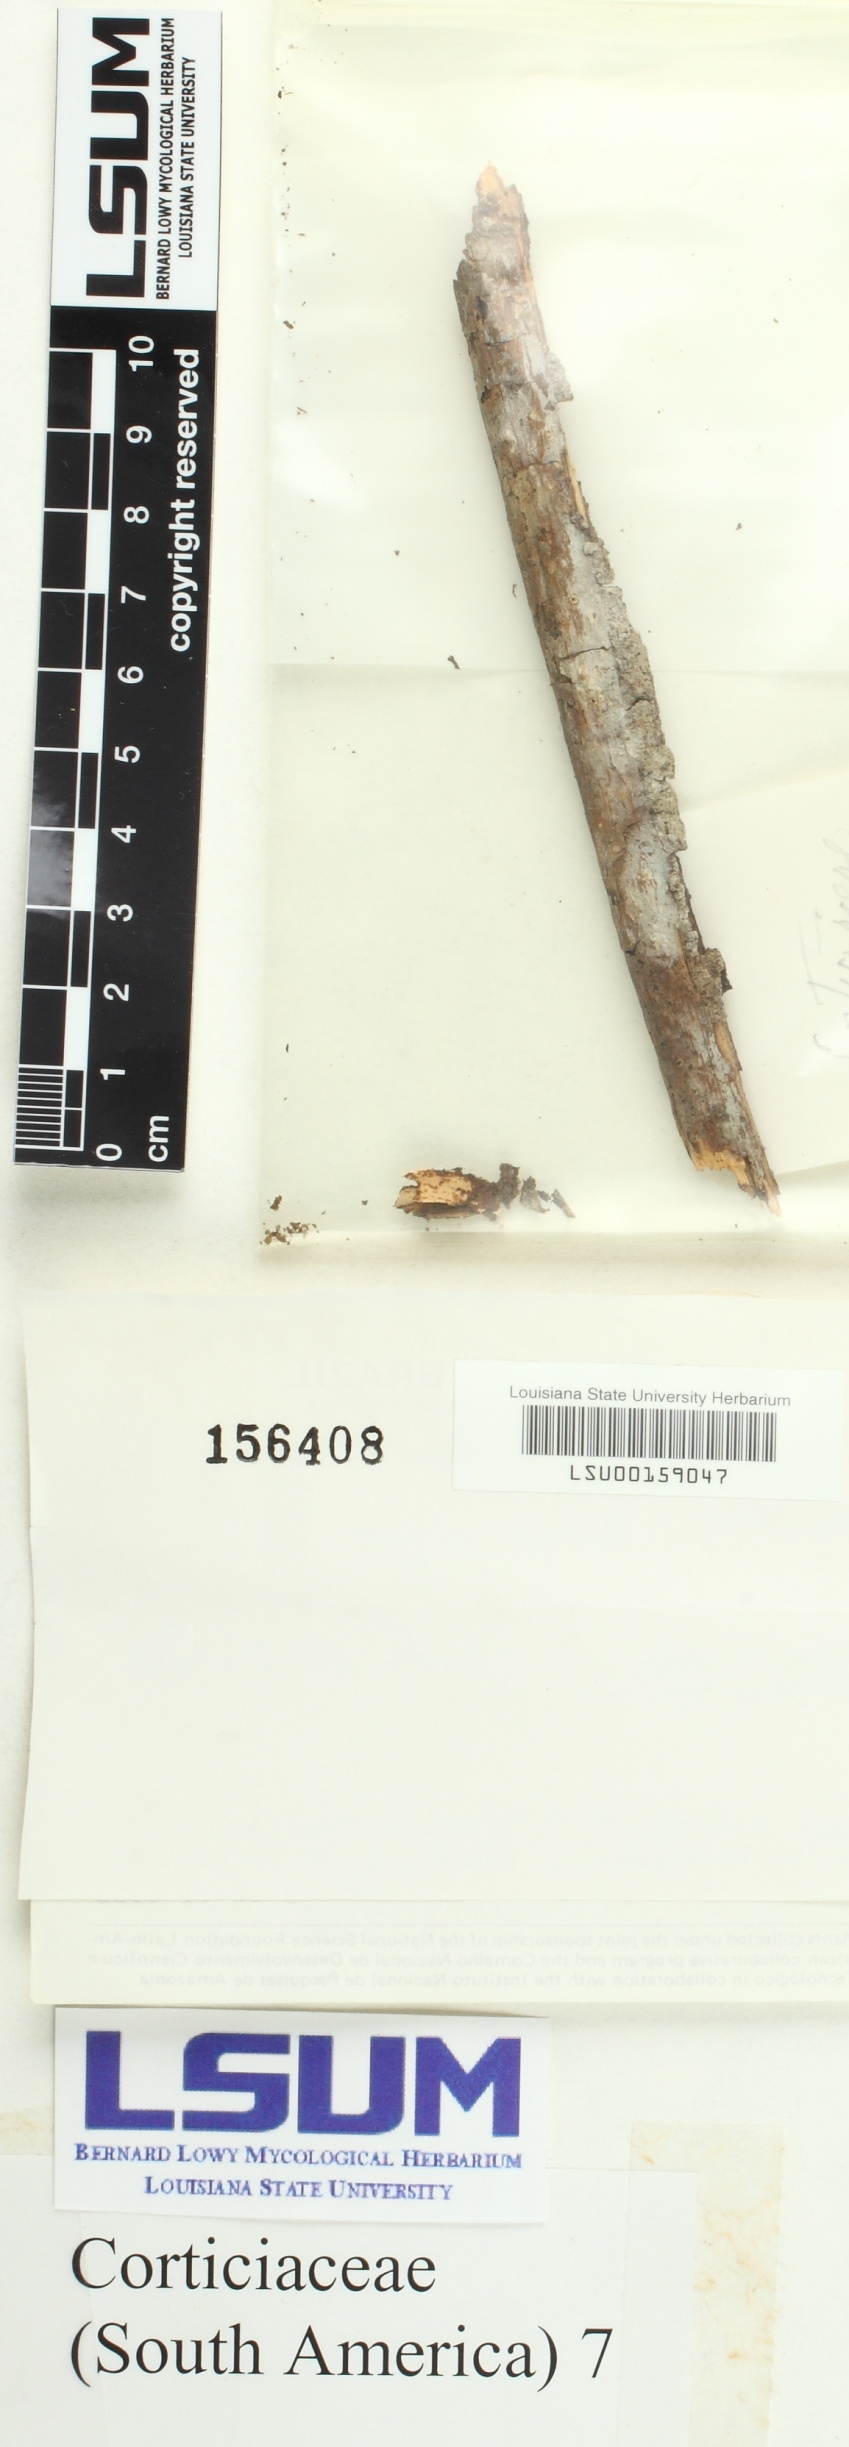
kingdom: Fungi
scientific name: Fungi
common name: Fungi
